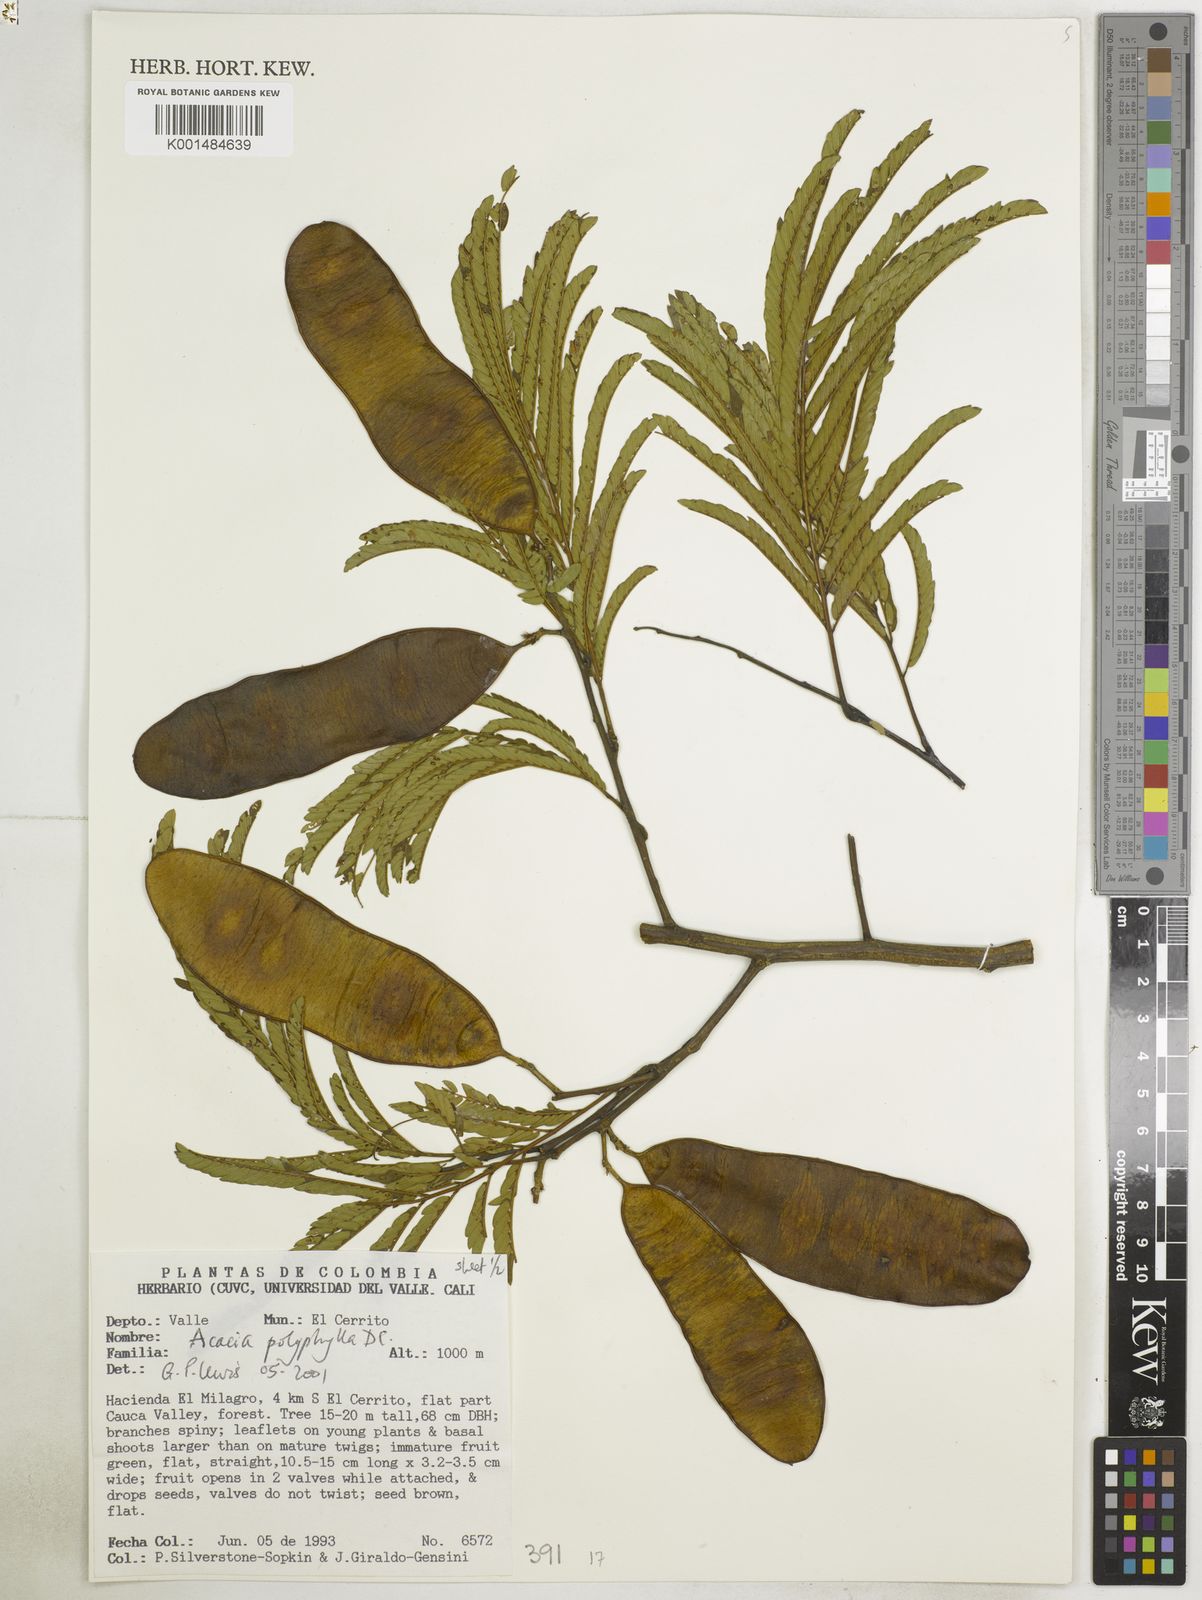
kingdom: Plantae
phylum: Tracheophyta
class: Magnoliopsida
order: Fabales
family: Fabaceae
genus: Senegalia
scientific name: Senegalia polyphylla
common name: White-tamarind
